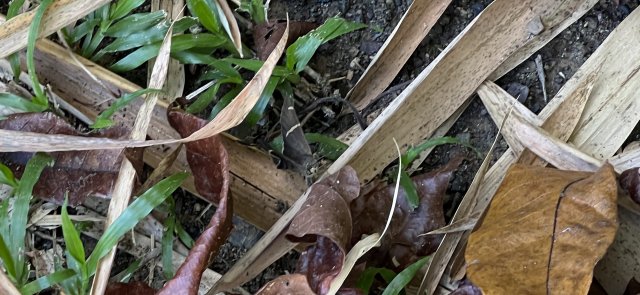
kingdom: Animalia
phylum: Arthropoda
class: Insecta
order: Lepidoptera
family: Hesperiidae
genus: Urbanus
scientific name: Urbanus tanna
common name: Tanna Longtail
